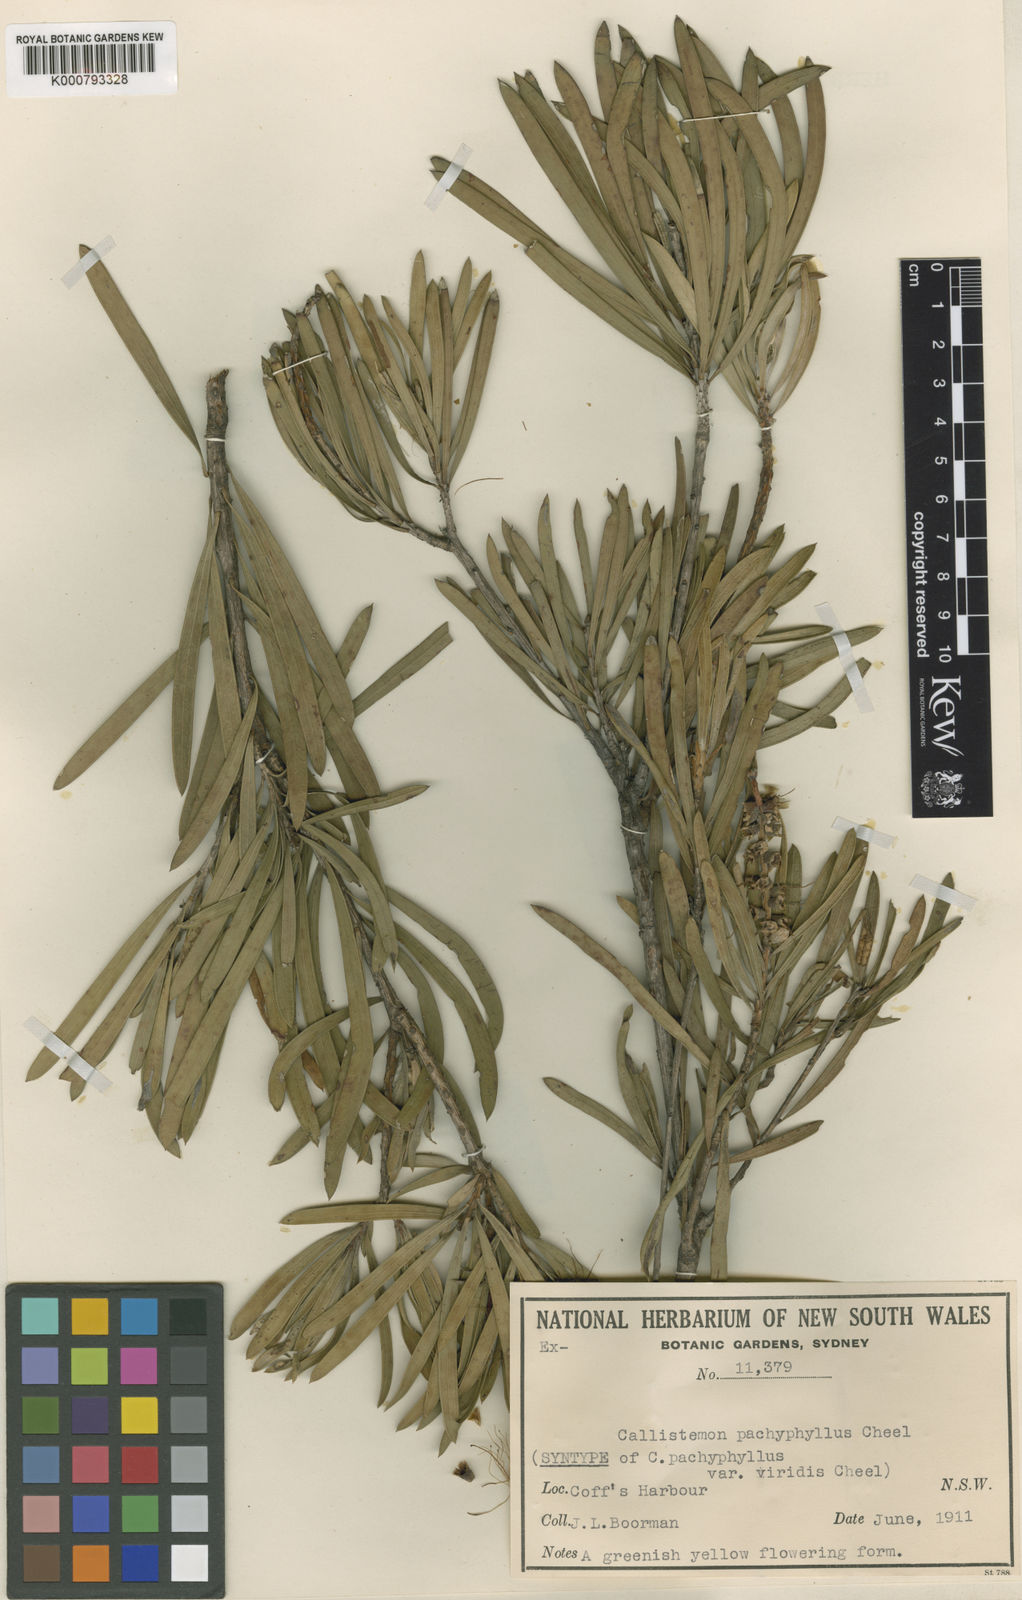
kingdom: Plantae
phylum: Tracheophyta
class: Magnoliopsida
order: Myrtales
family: Myrtaceae
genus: Callistemon
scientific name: Callistemon pachyphyllus
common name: Wallum bottlebrush
